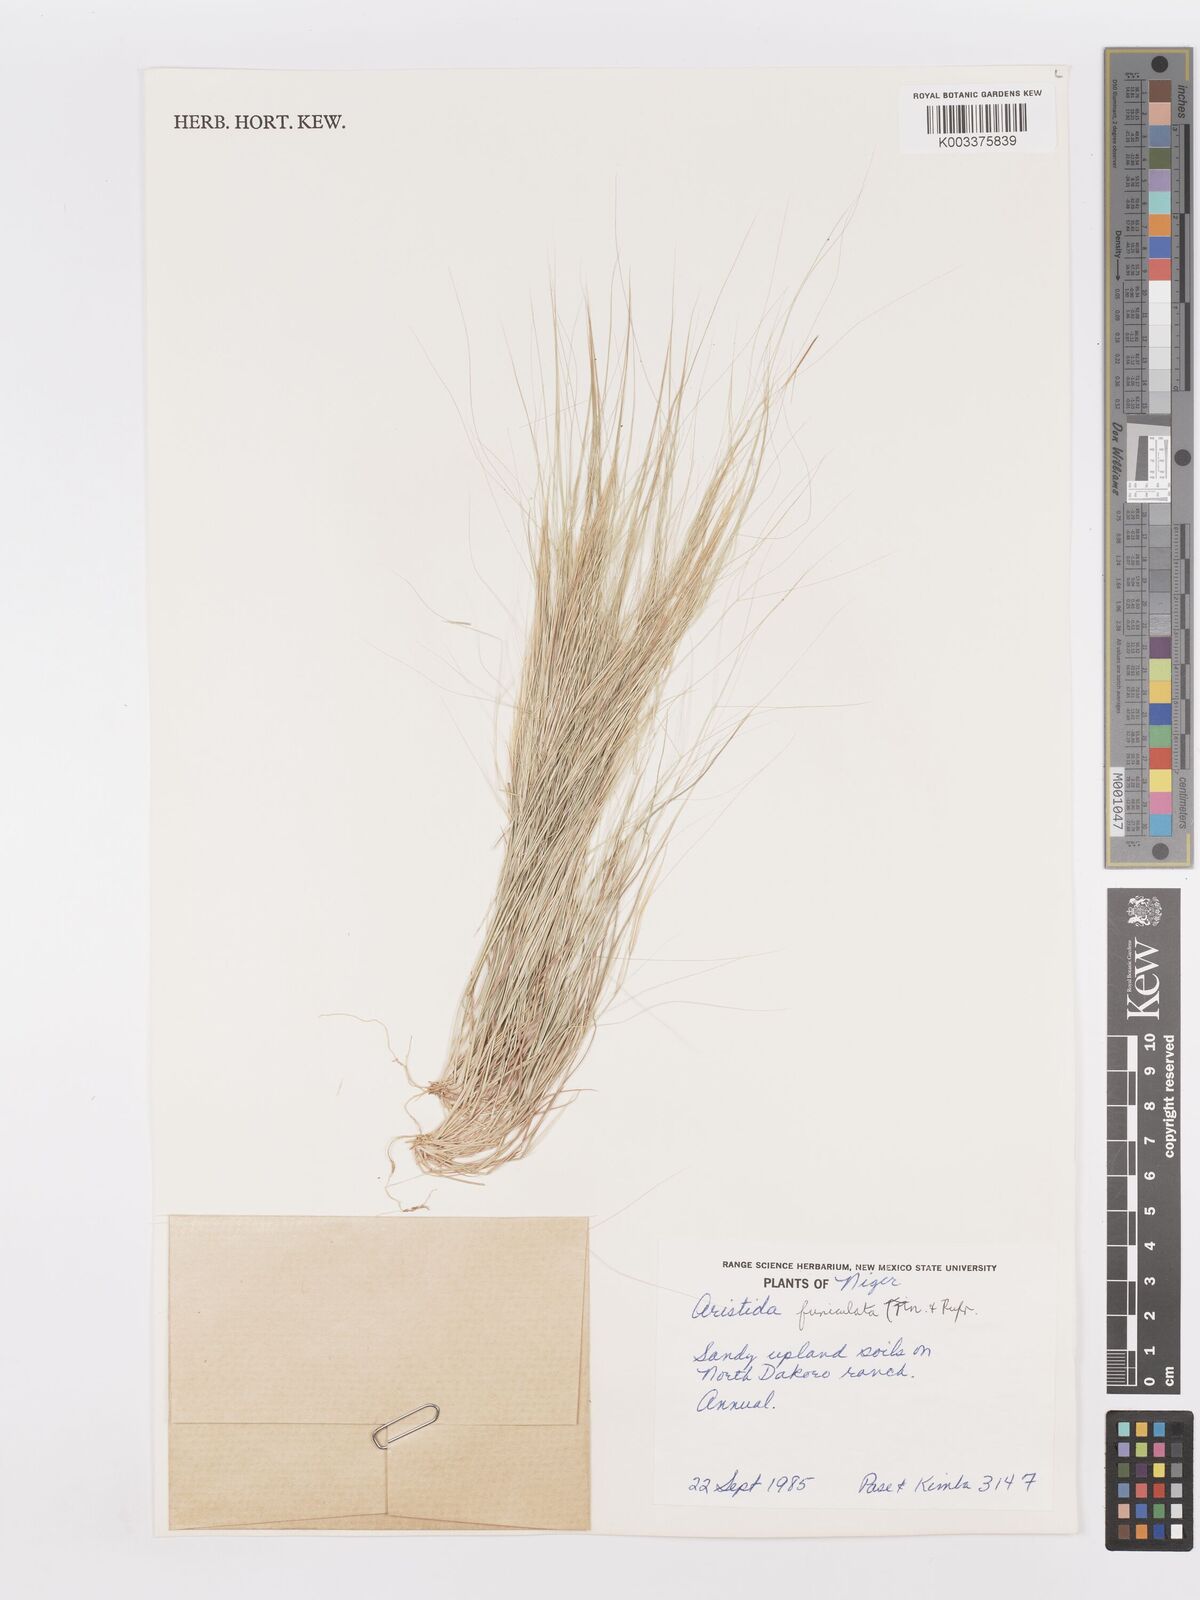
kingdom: Plantae
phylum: Tracheophyta
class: Liliopsida
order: Poales
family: Poaceae
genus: Aristida
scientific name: Aristida funiculata
